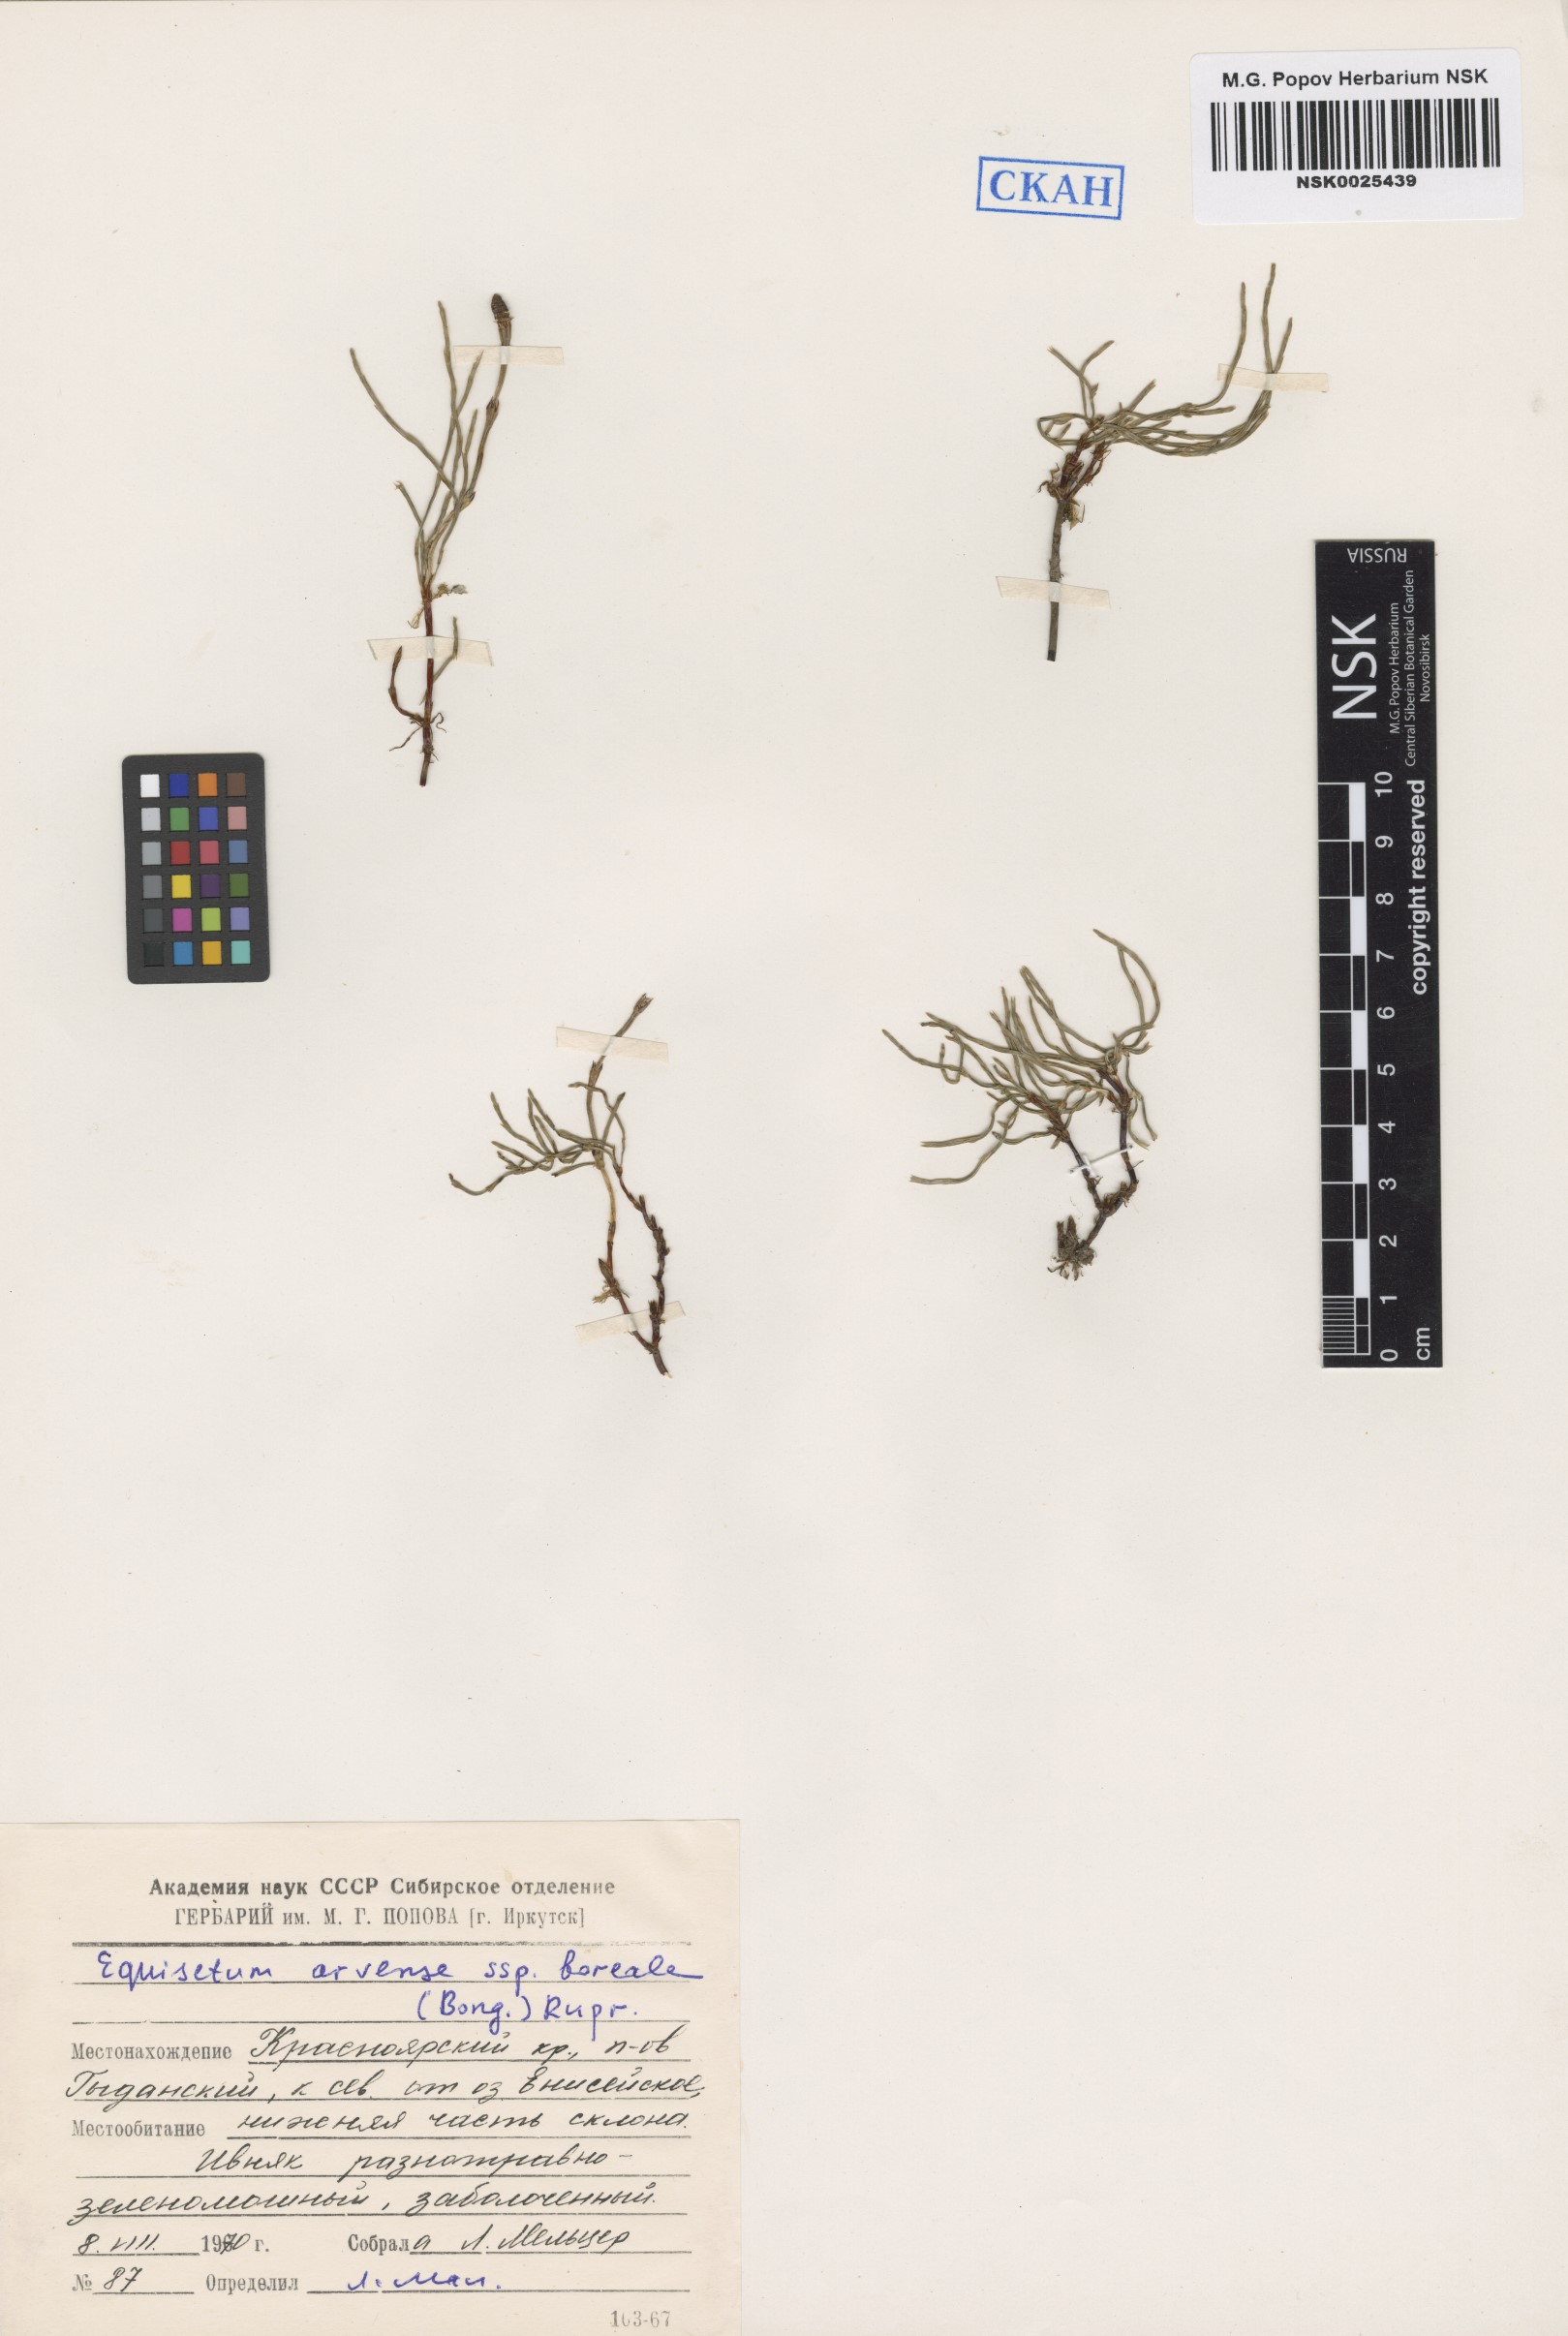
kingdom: Plantae
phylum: Tracheophyta
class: Polypodiopsida
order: Equisetales
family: Equisetaceae
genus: Equisetum
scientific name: Equisetum arvense
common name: Field horsetail
